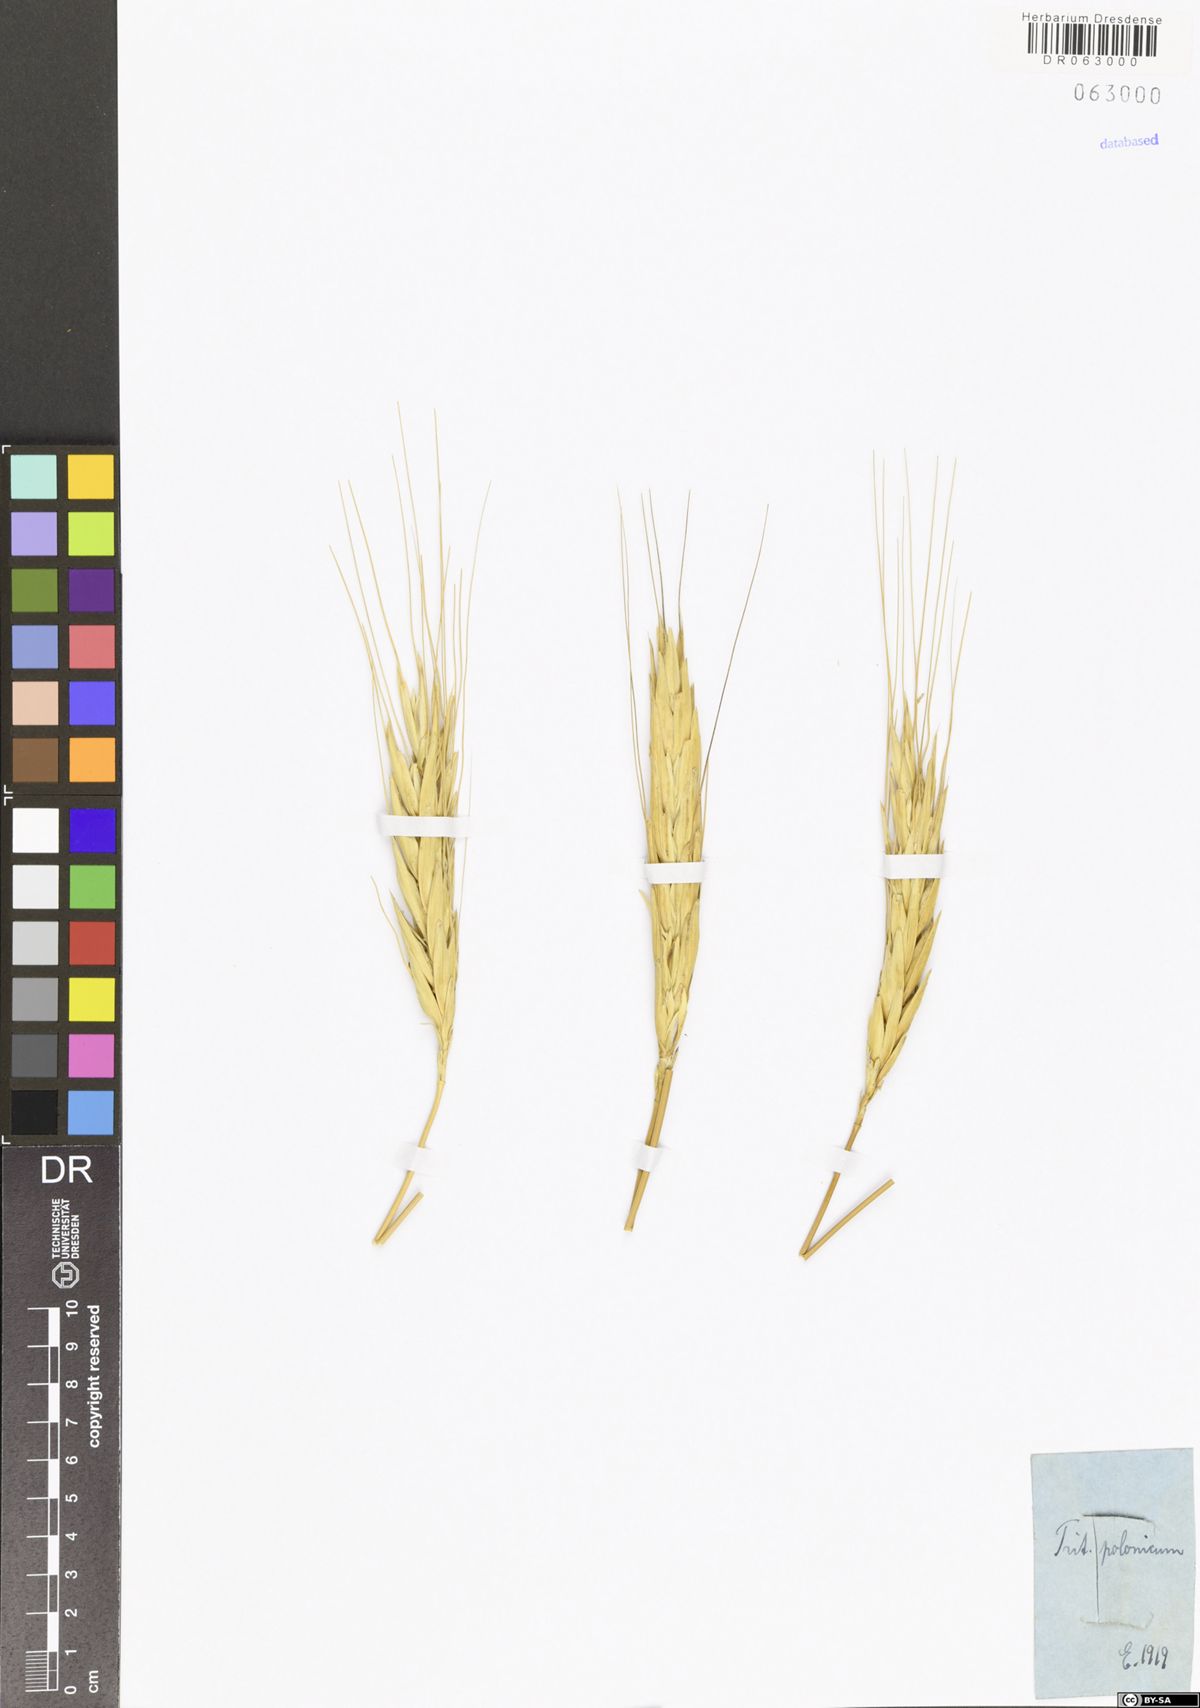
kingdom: Plantae
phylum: Tracheophyta
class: Liliopsida
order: Poales
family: Poaceae
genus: Triticum
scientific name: Triticum turgidum
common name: Rivet wheat
